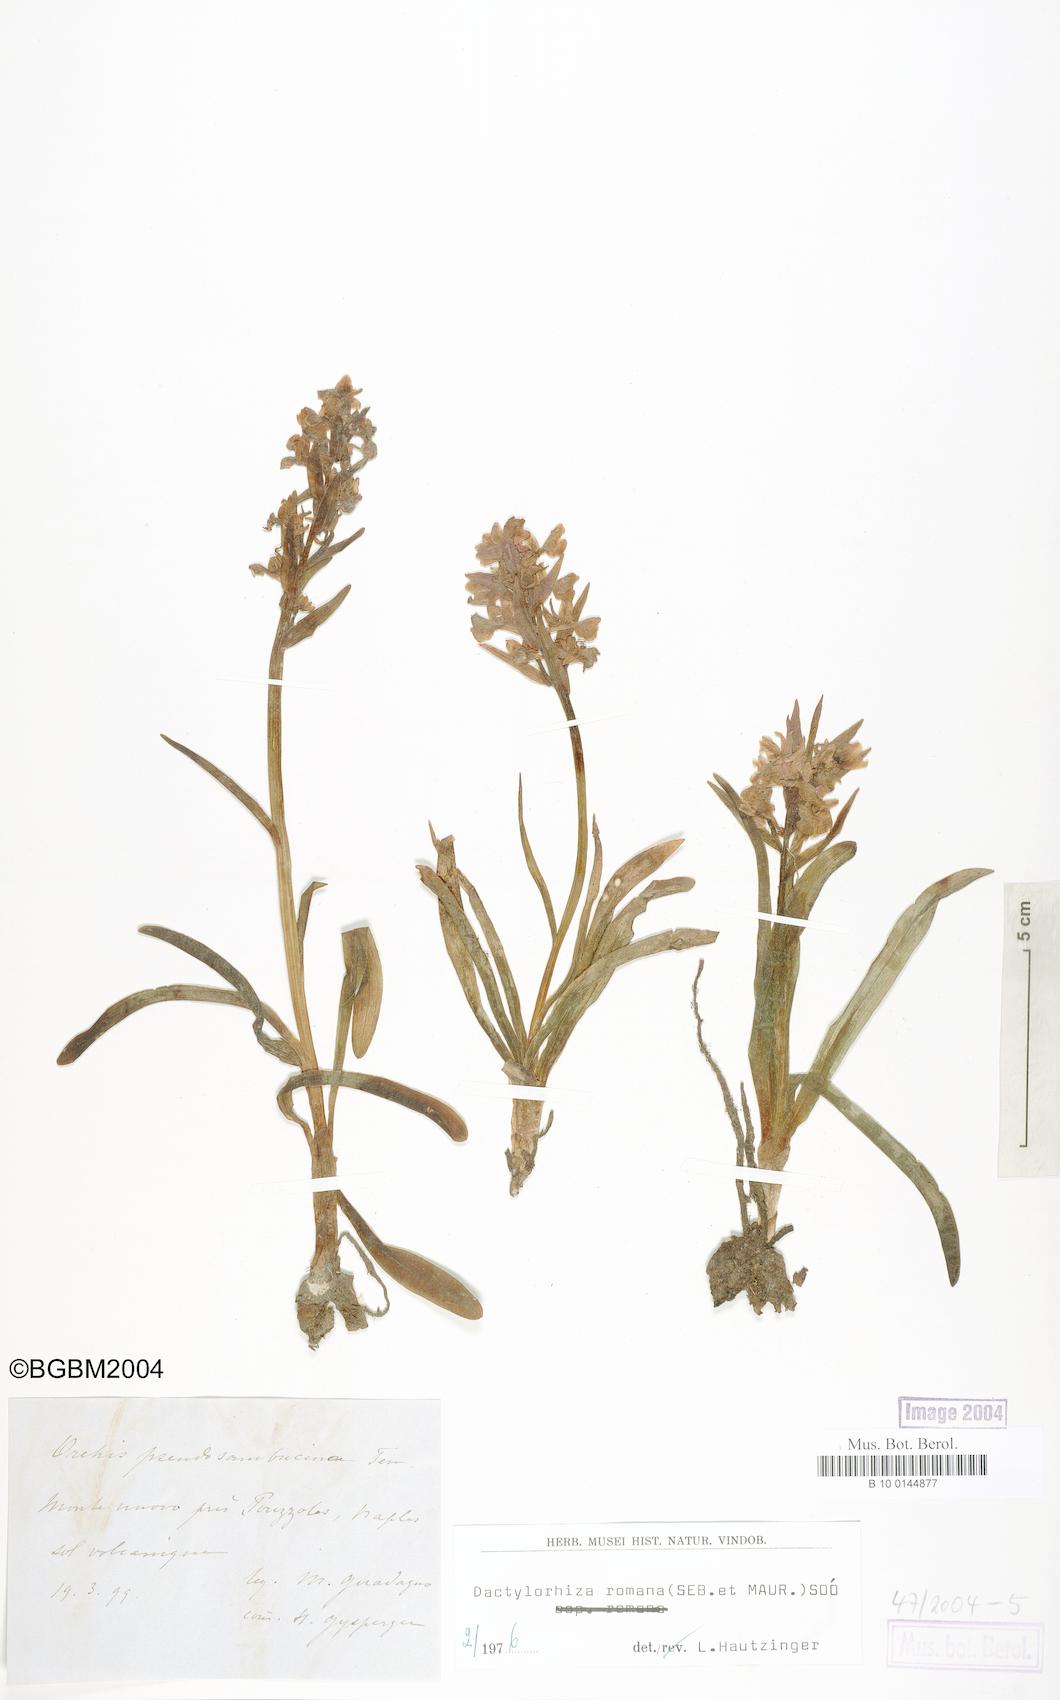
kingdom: Plantae
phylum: Tracheophyta
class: Liliopsida
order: Asparagales
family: Orchidaceae
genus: Dactylorhiza
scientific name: Dactylorhiza romana
